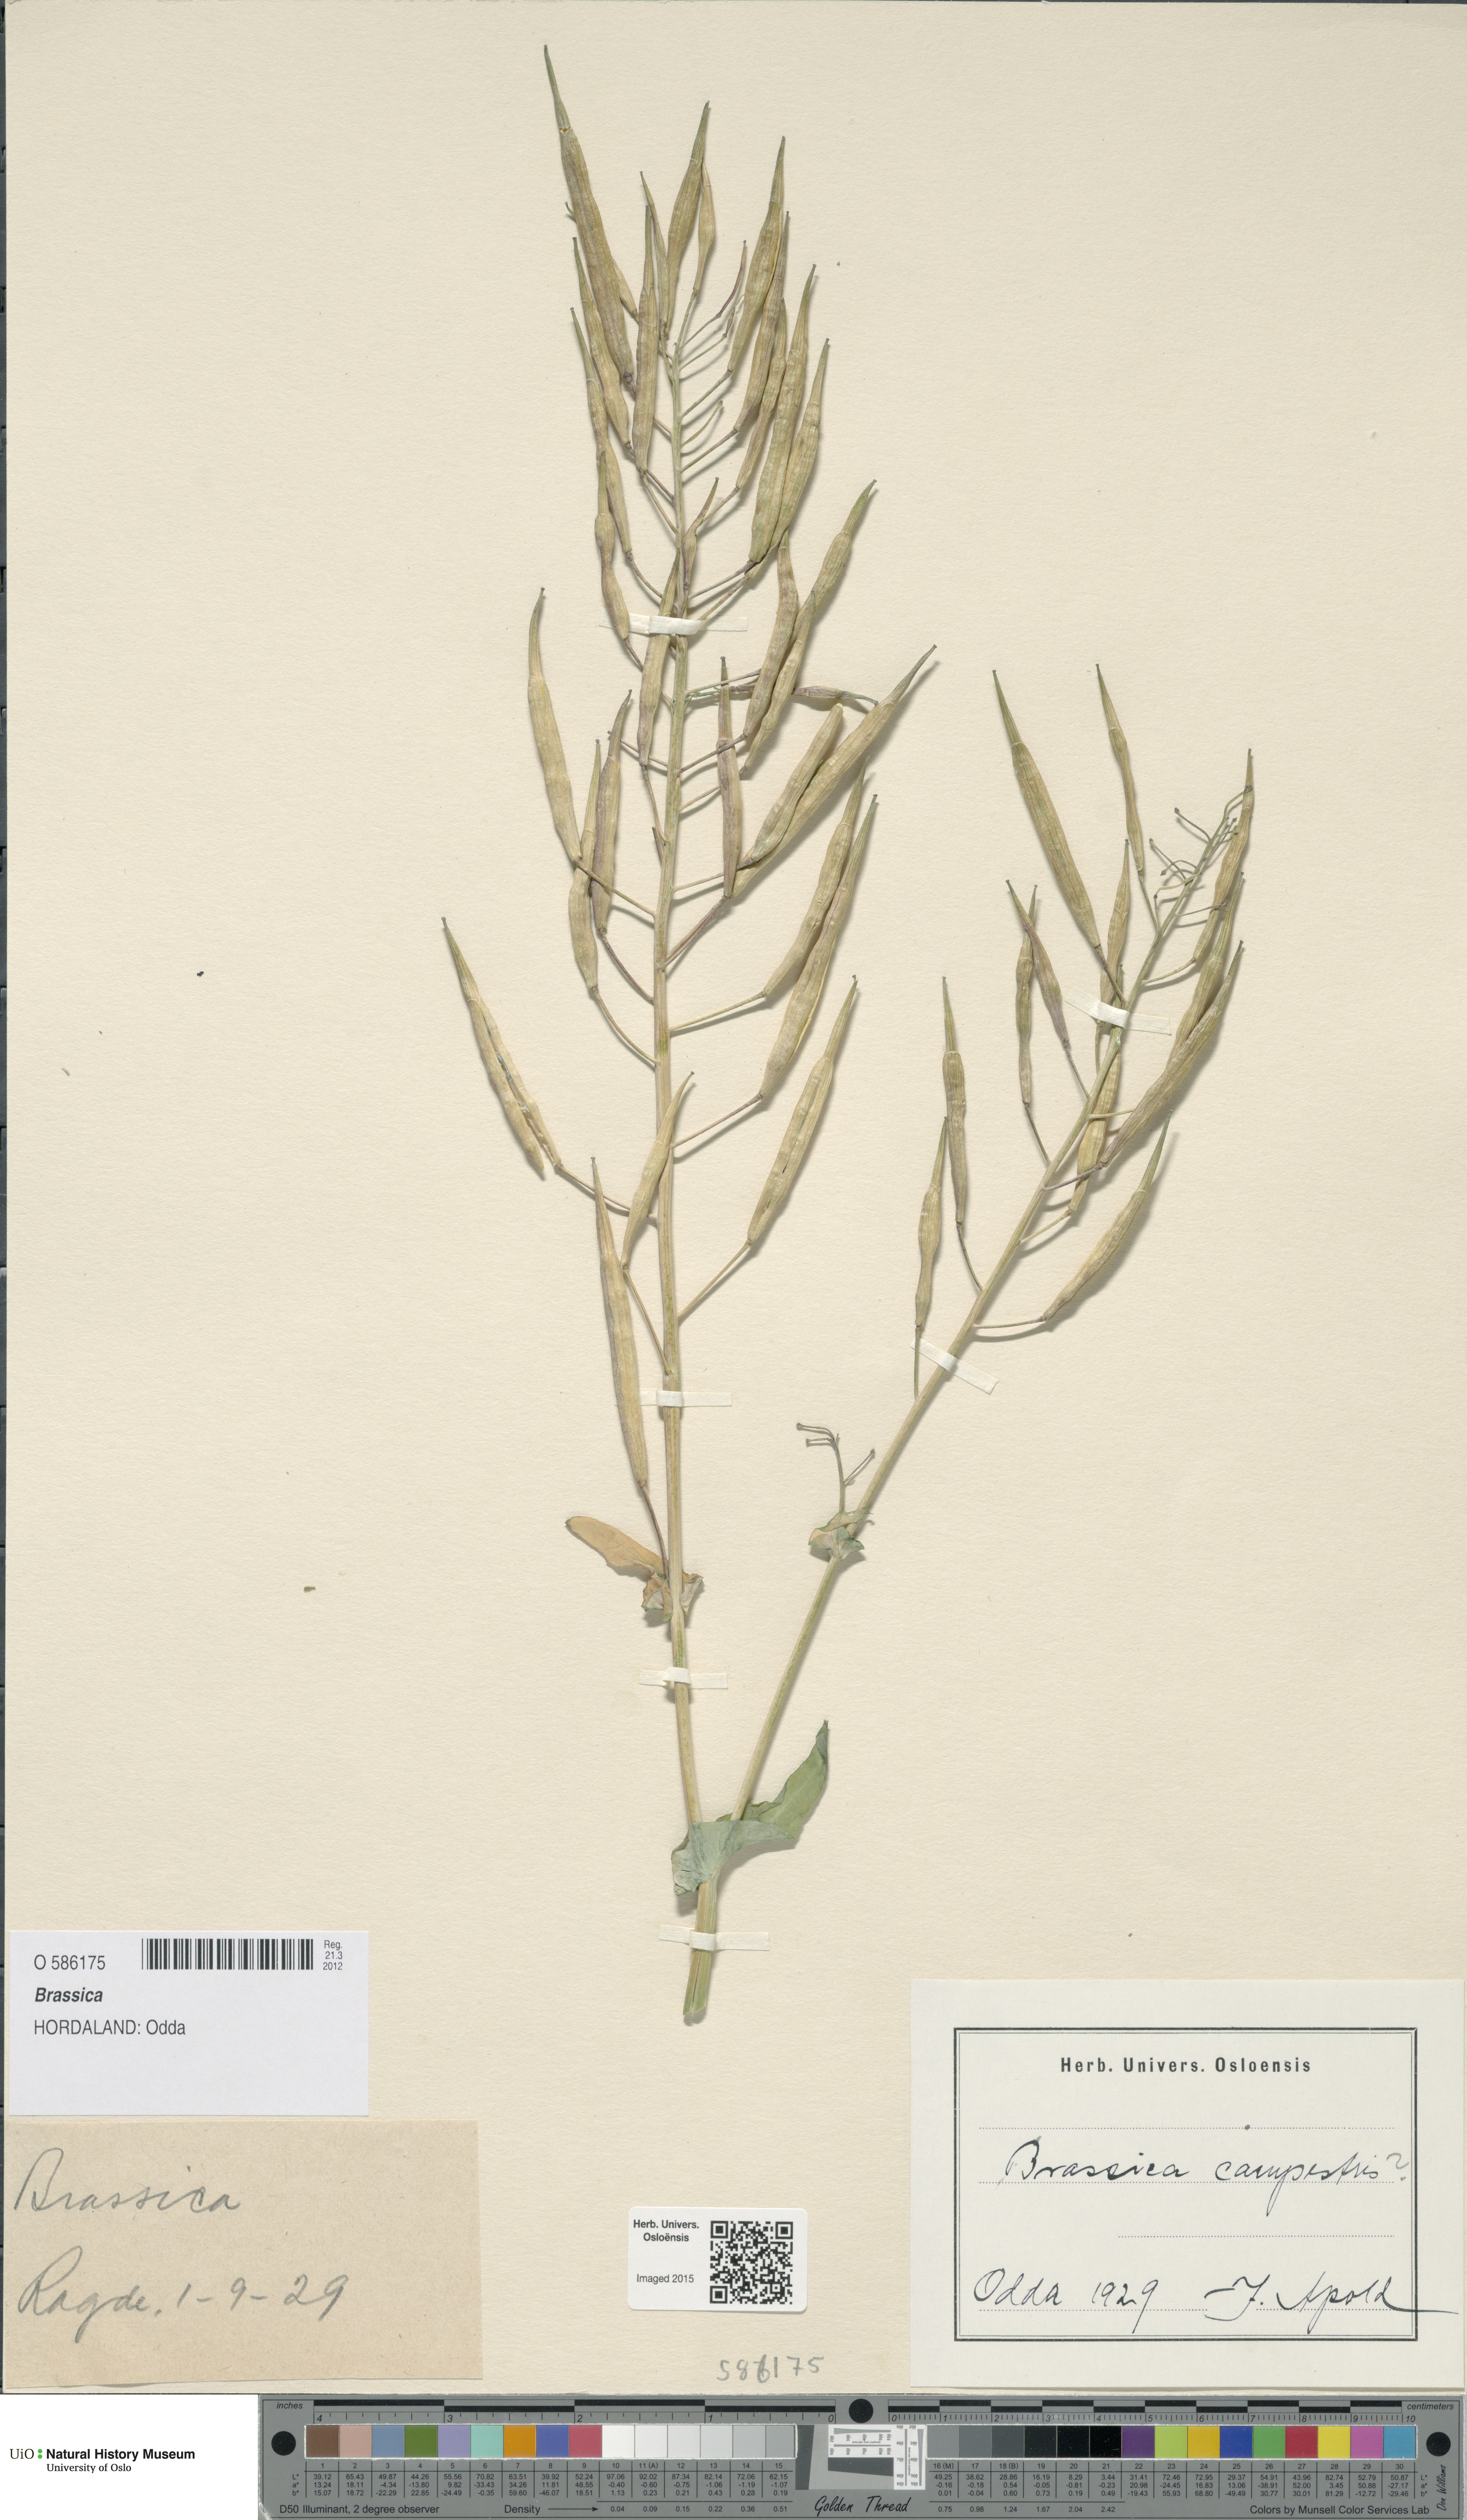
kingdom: Plantae
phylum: Tracheophyta
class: Magnoliopsida
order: Brassicales
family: Brassicaceae
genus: Brassica
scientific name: Brassica rapa
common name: Field mustard
